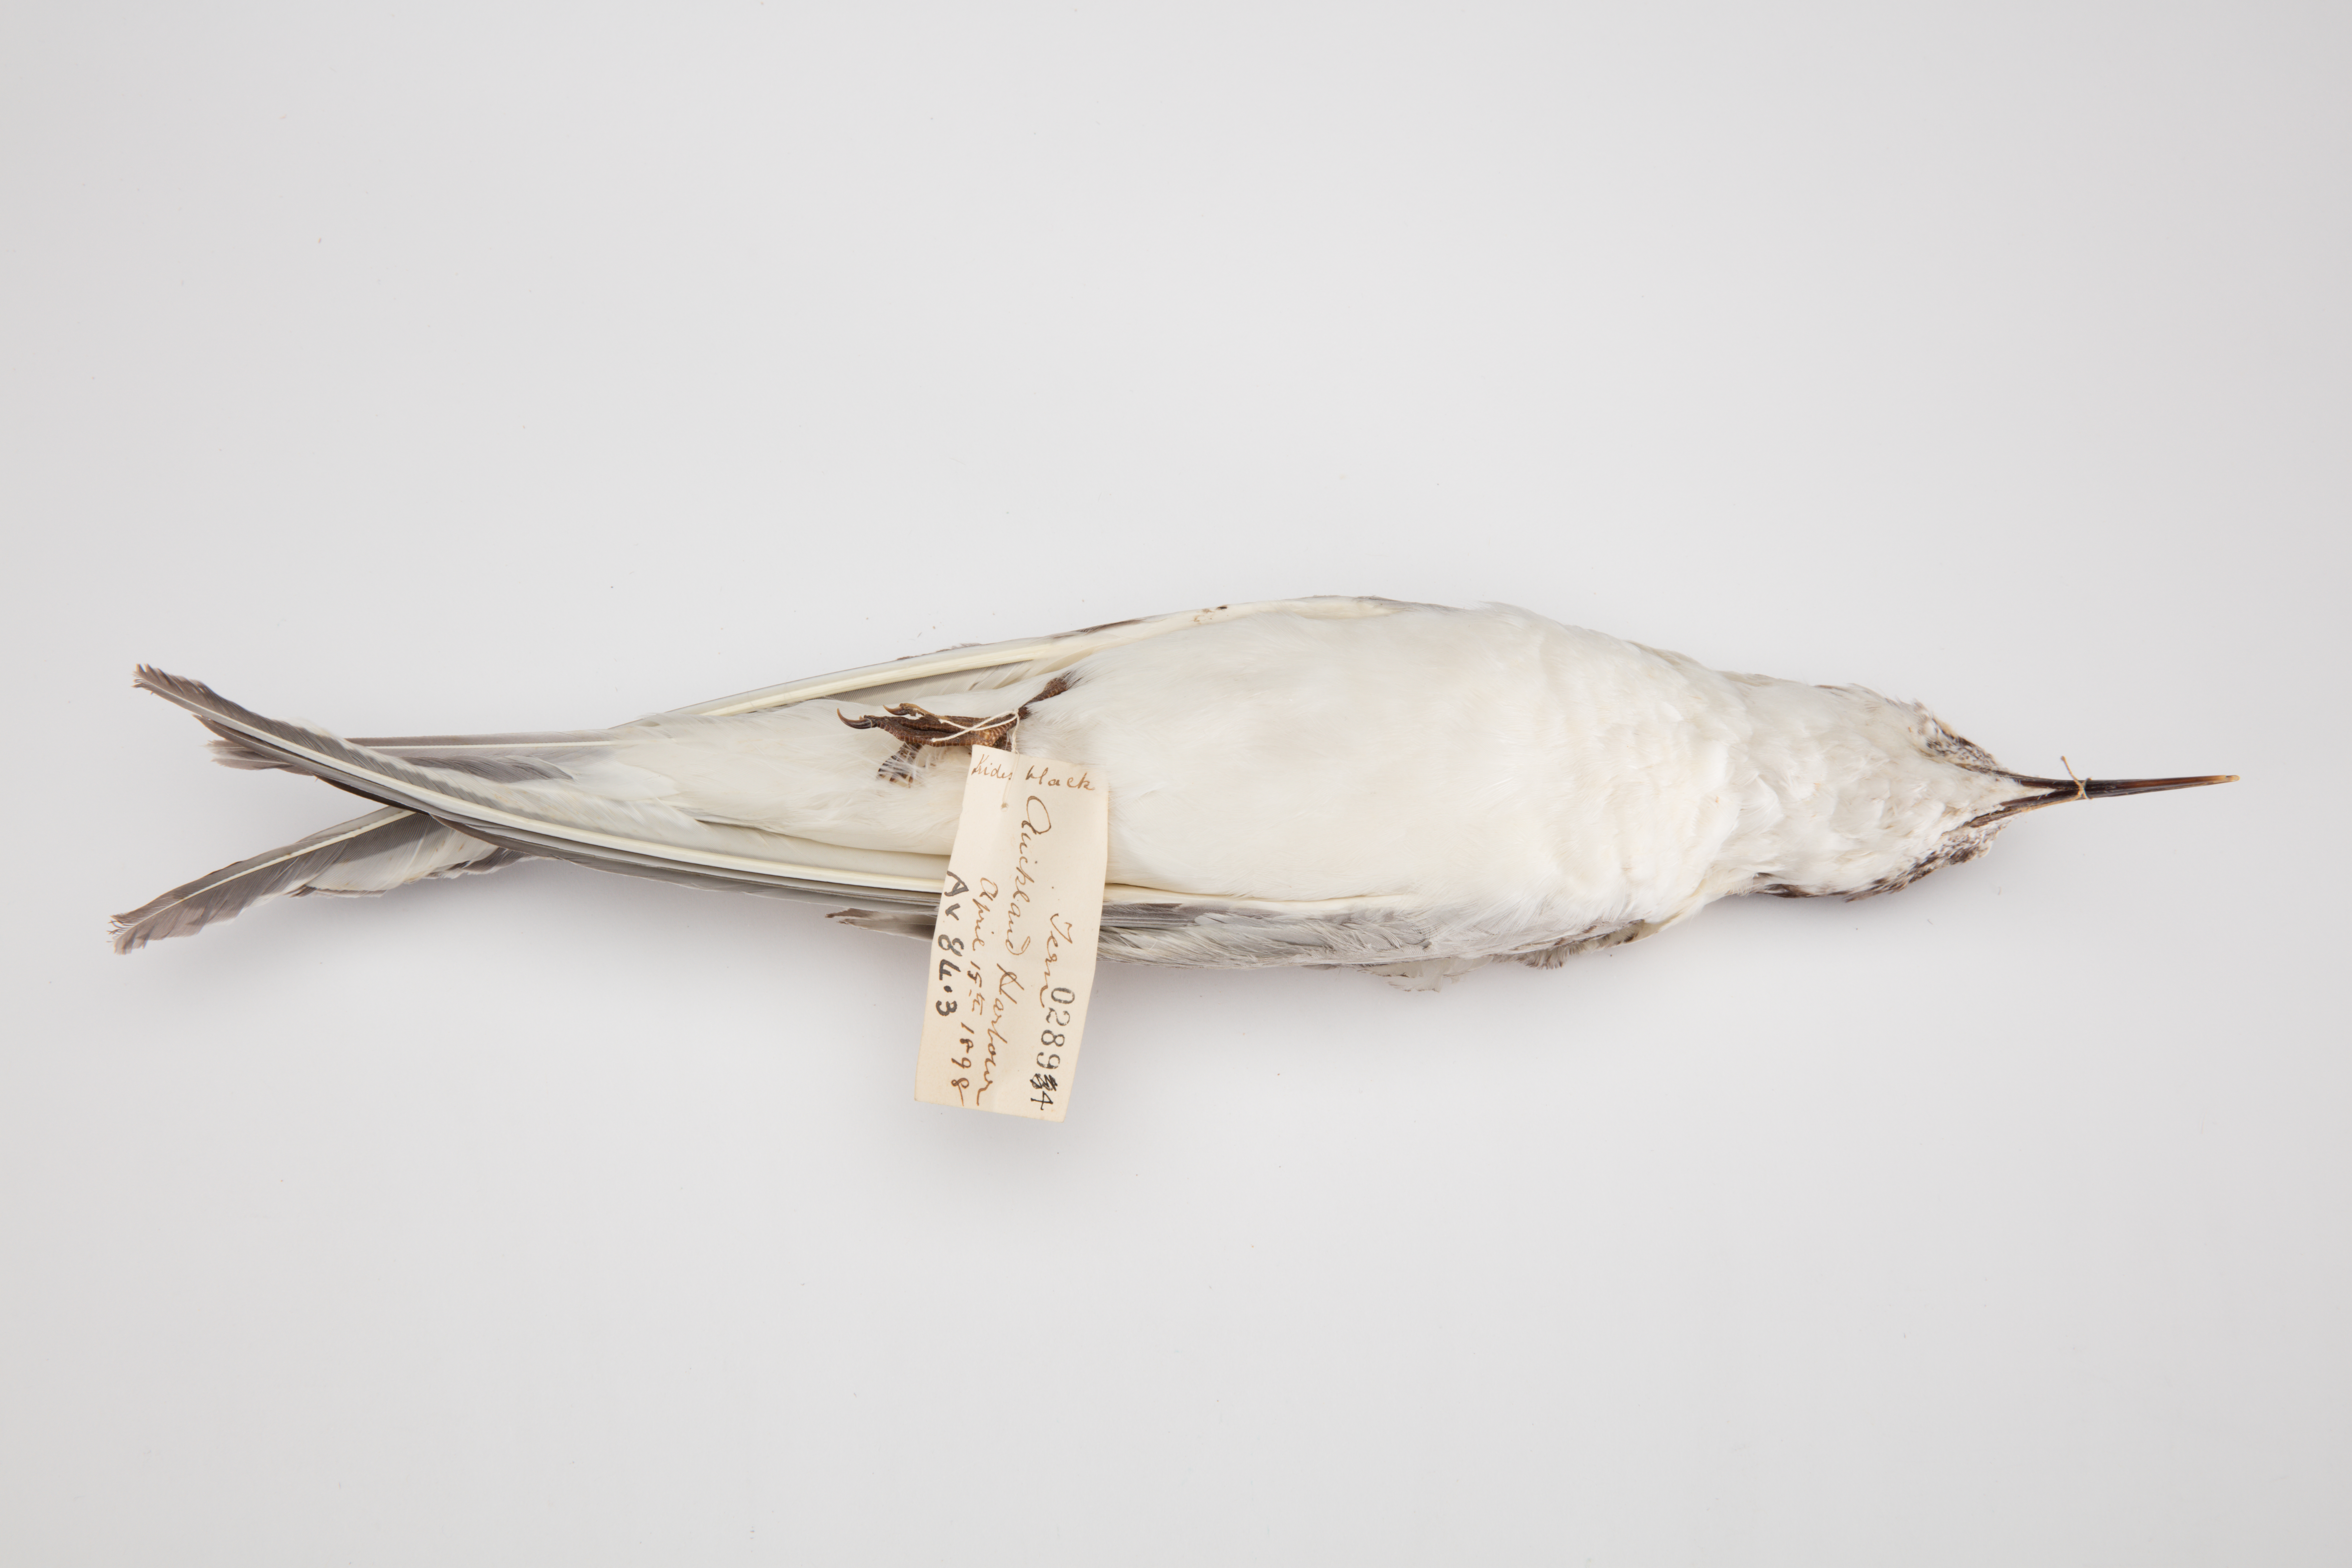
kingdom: Animalia
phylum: Chordata
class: Aves
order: Charadriiformes
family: Laridae
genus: Sterna
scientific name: Sterna striata
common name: White-fronted tern
